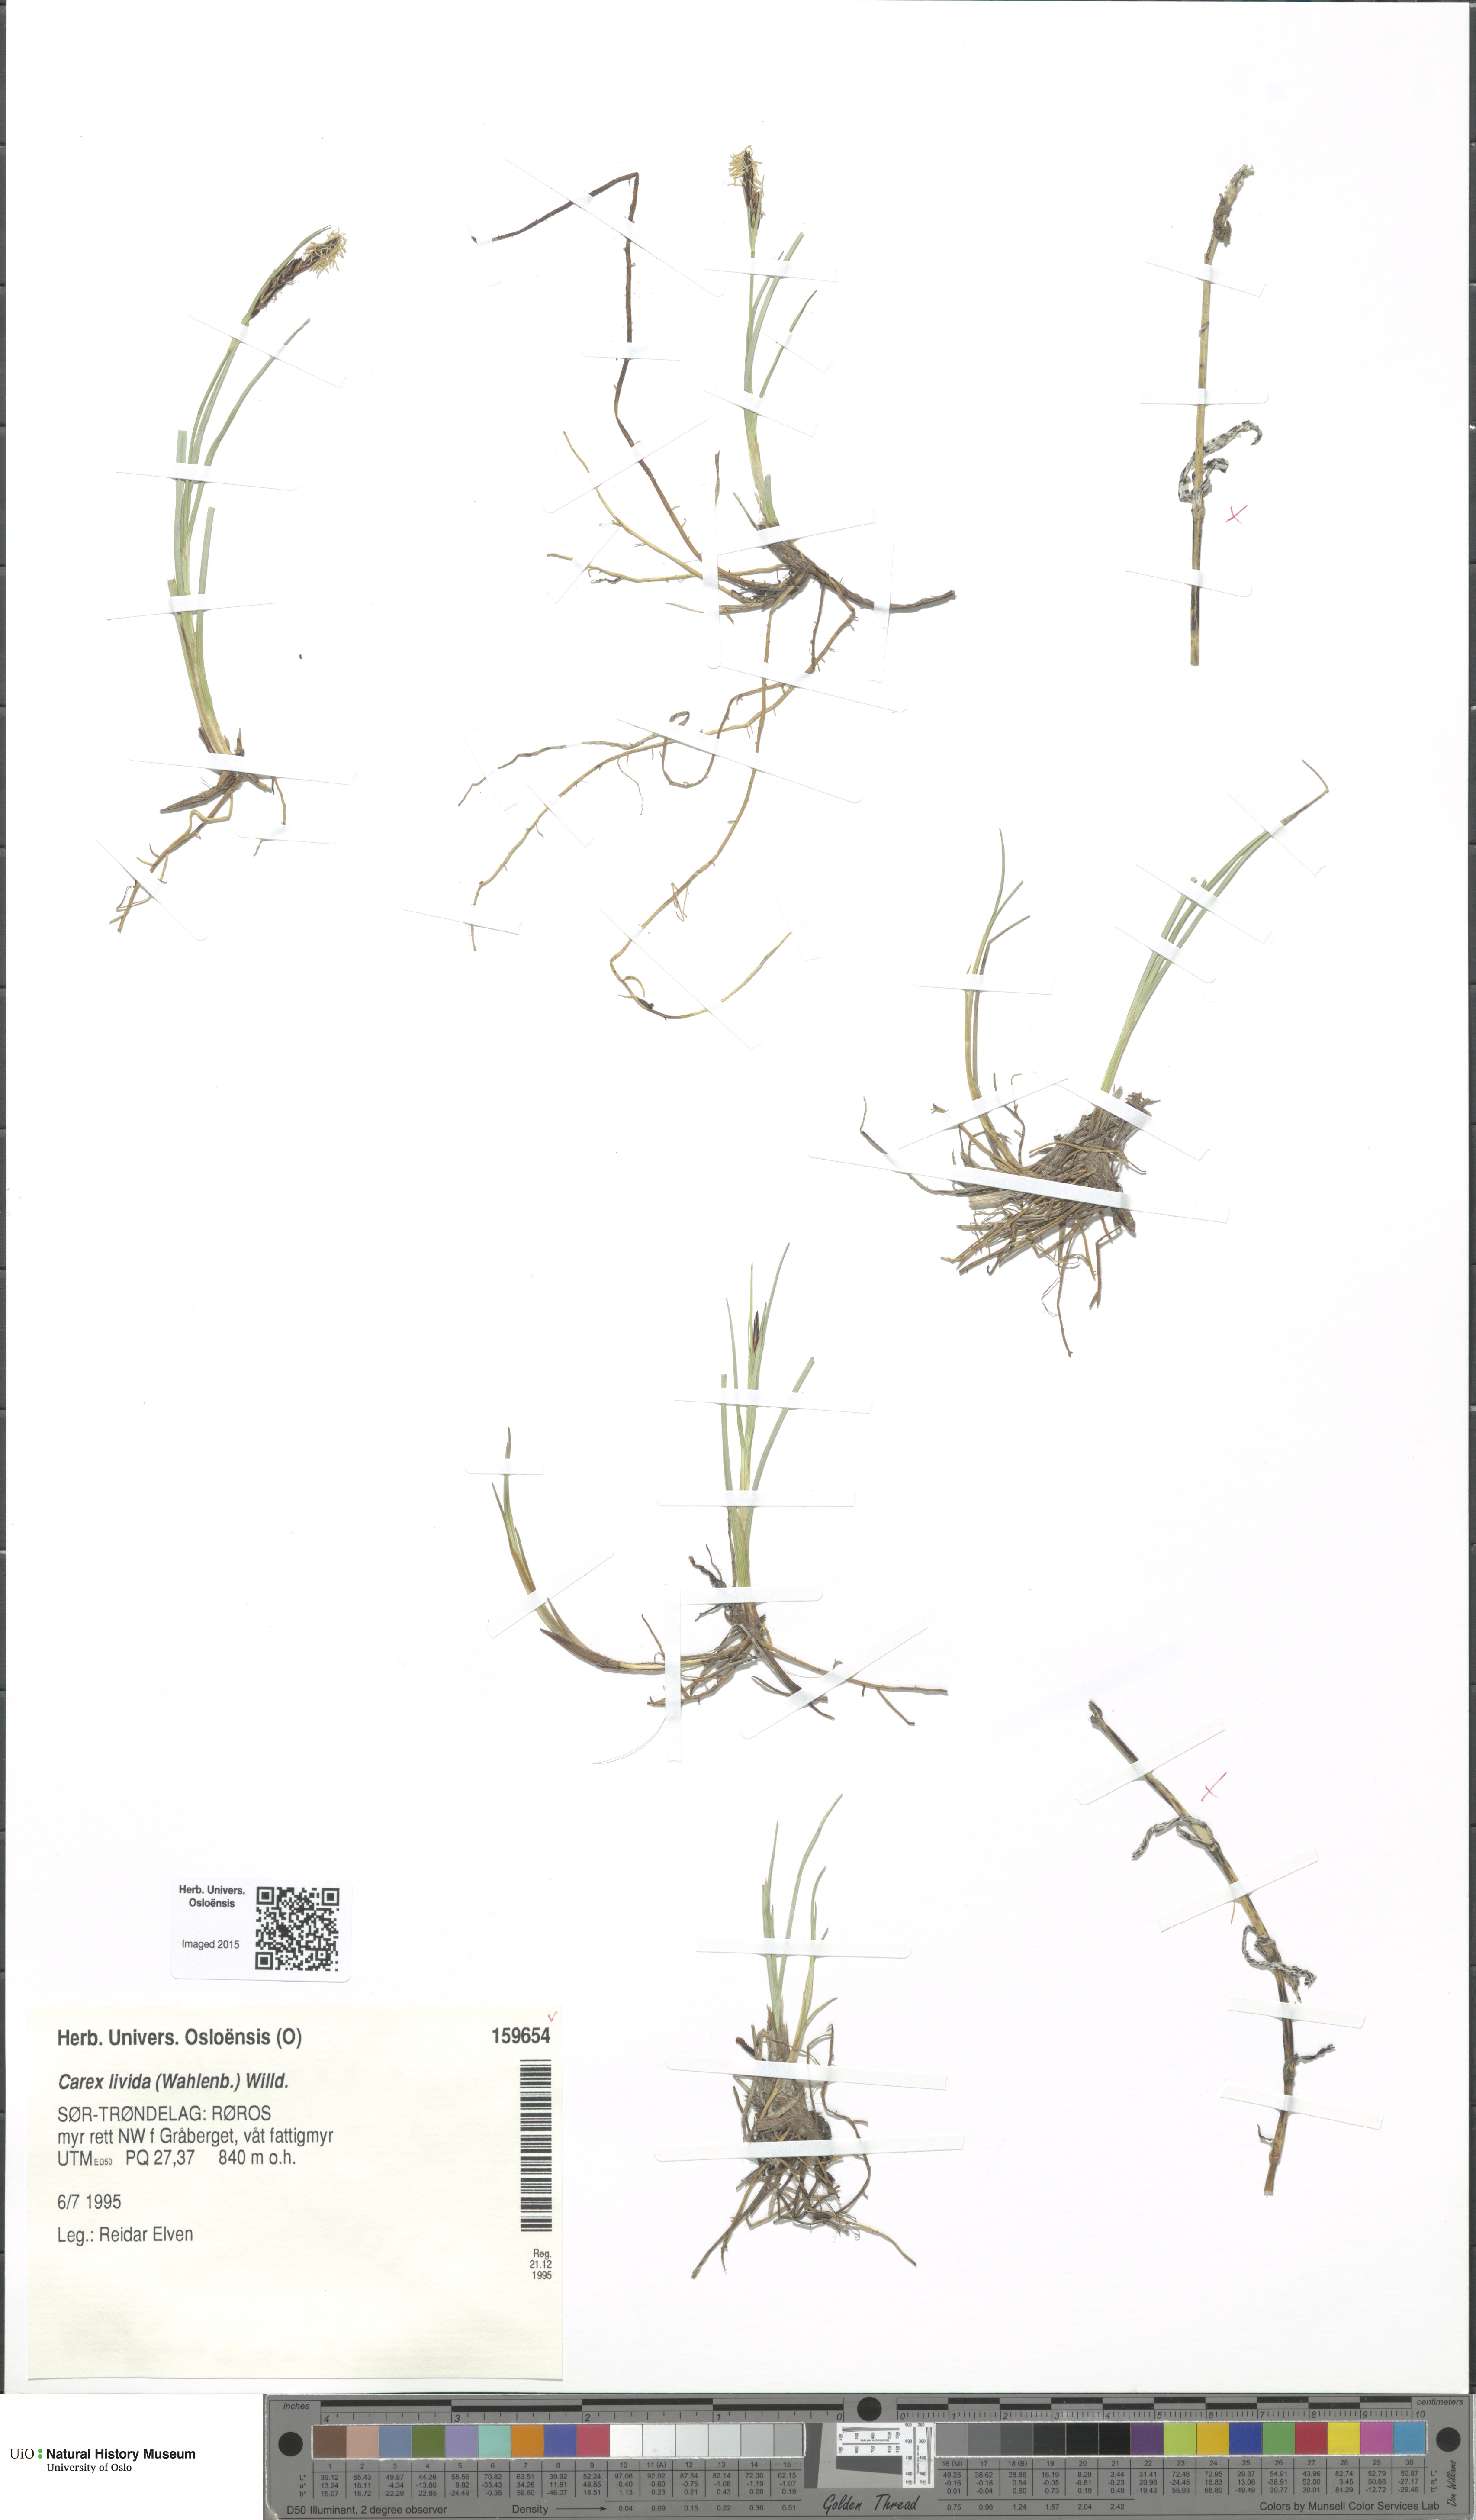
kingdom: Plantae
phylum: Tracheophyta
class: Liliopsida
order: Poales
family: Cyperaceae
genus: Carex
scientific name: Carex livida
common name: Livid sedge
